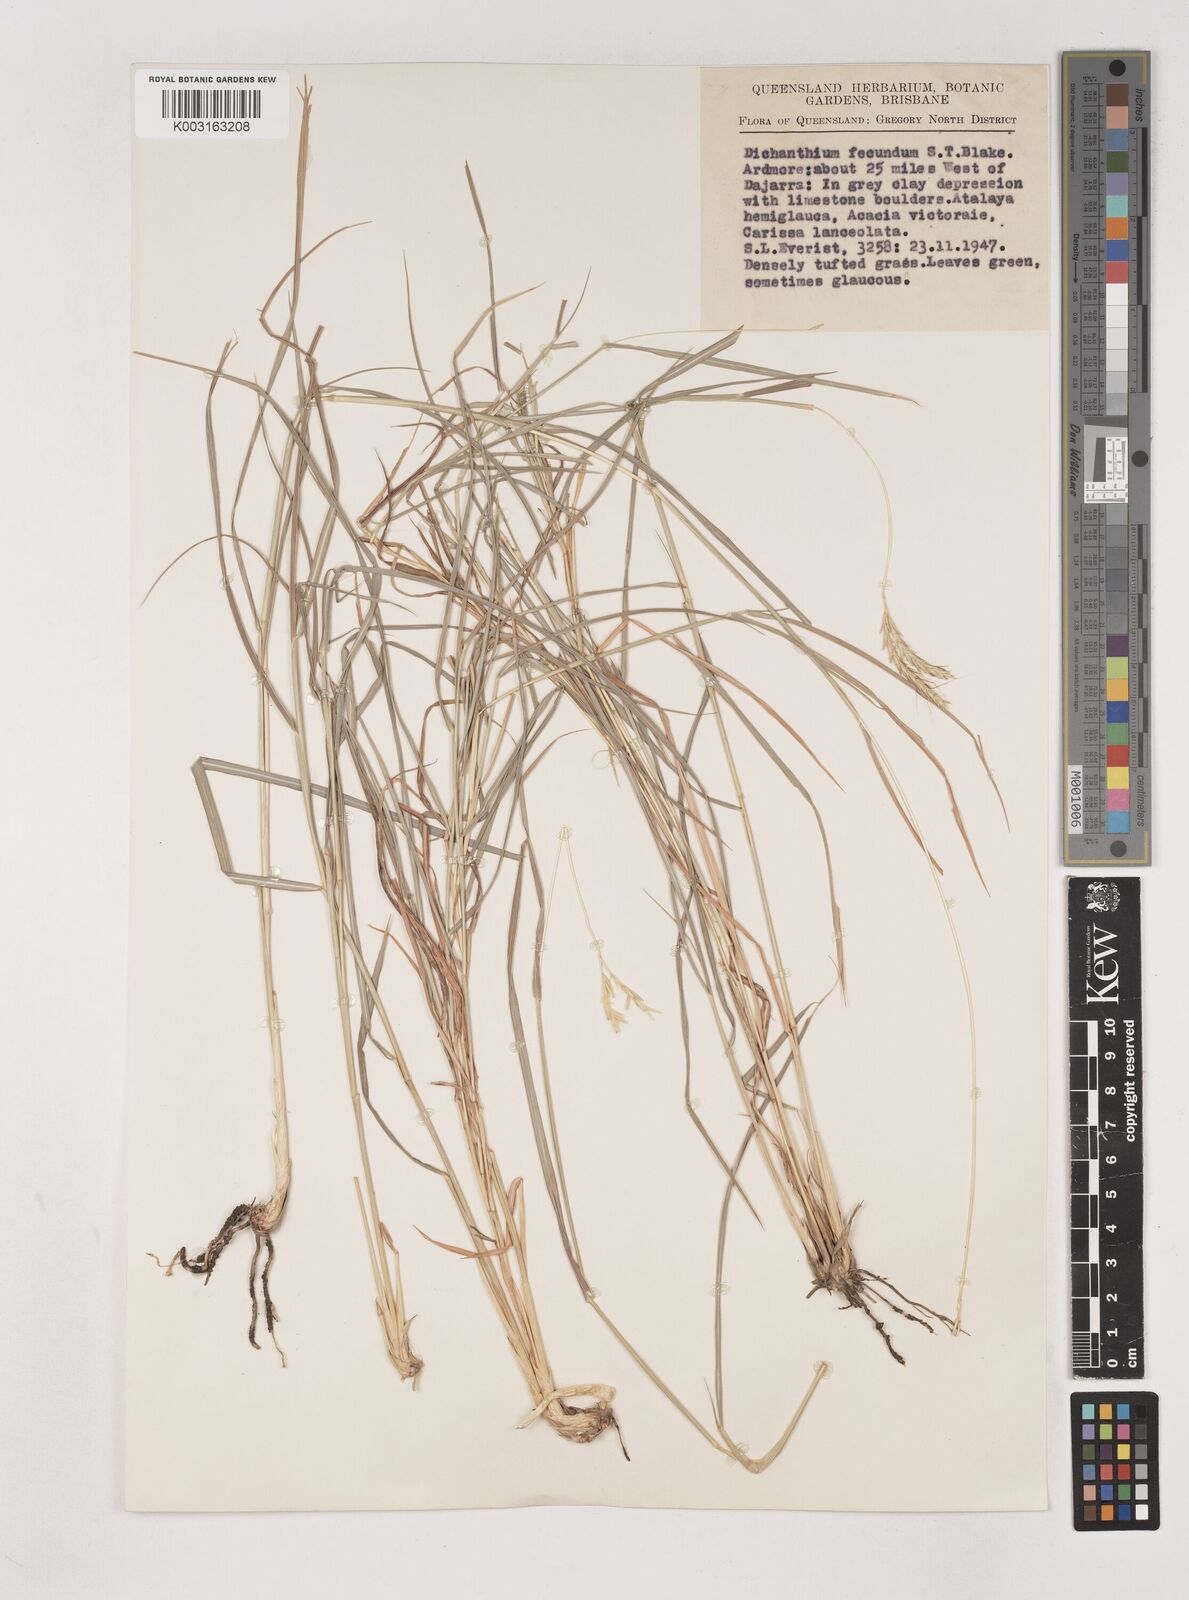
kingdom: Plantae
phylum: Tracheophyta
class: Liliopsida
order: Poales
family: Poaceae
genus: Dichanthium
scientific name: Dichanthium fecundum
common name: Bundle-bundle
